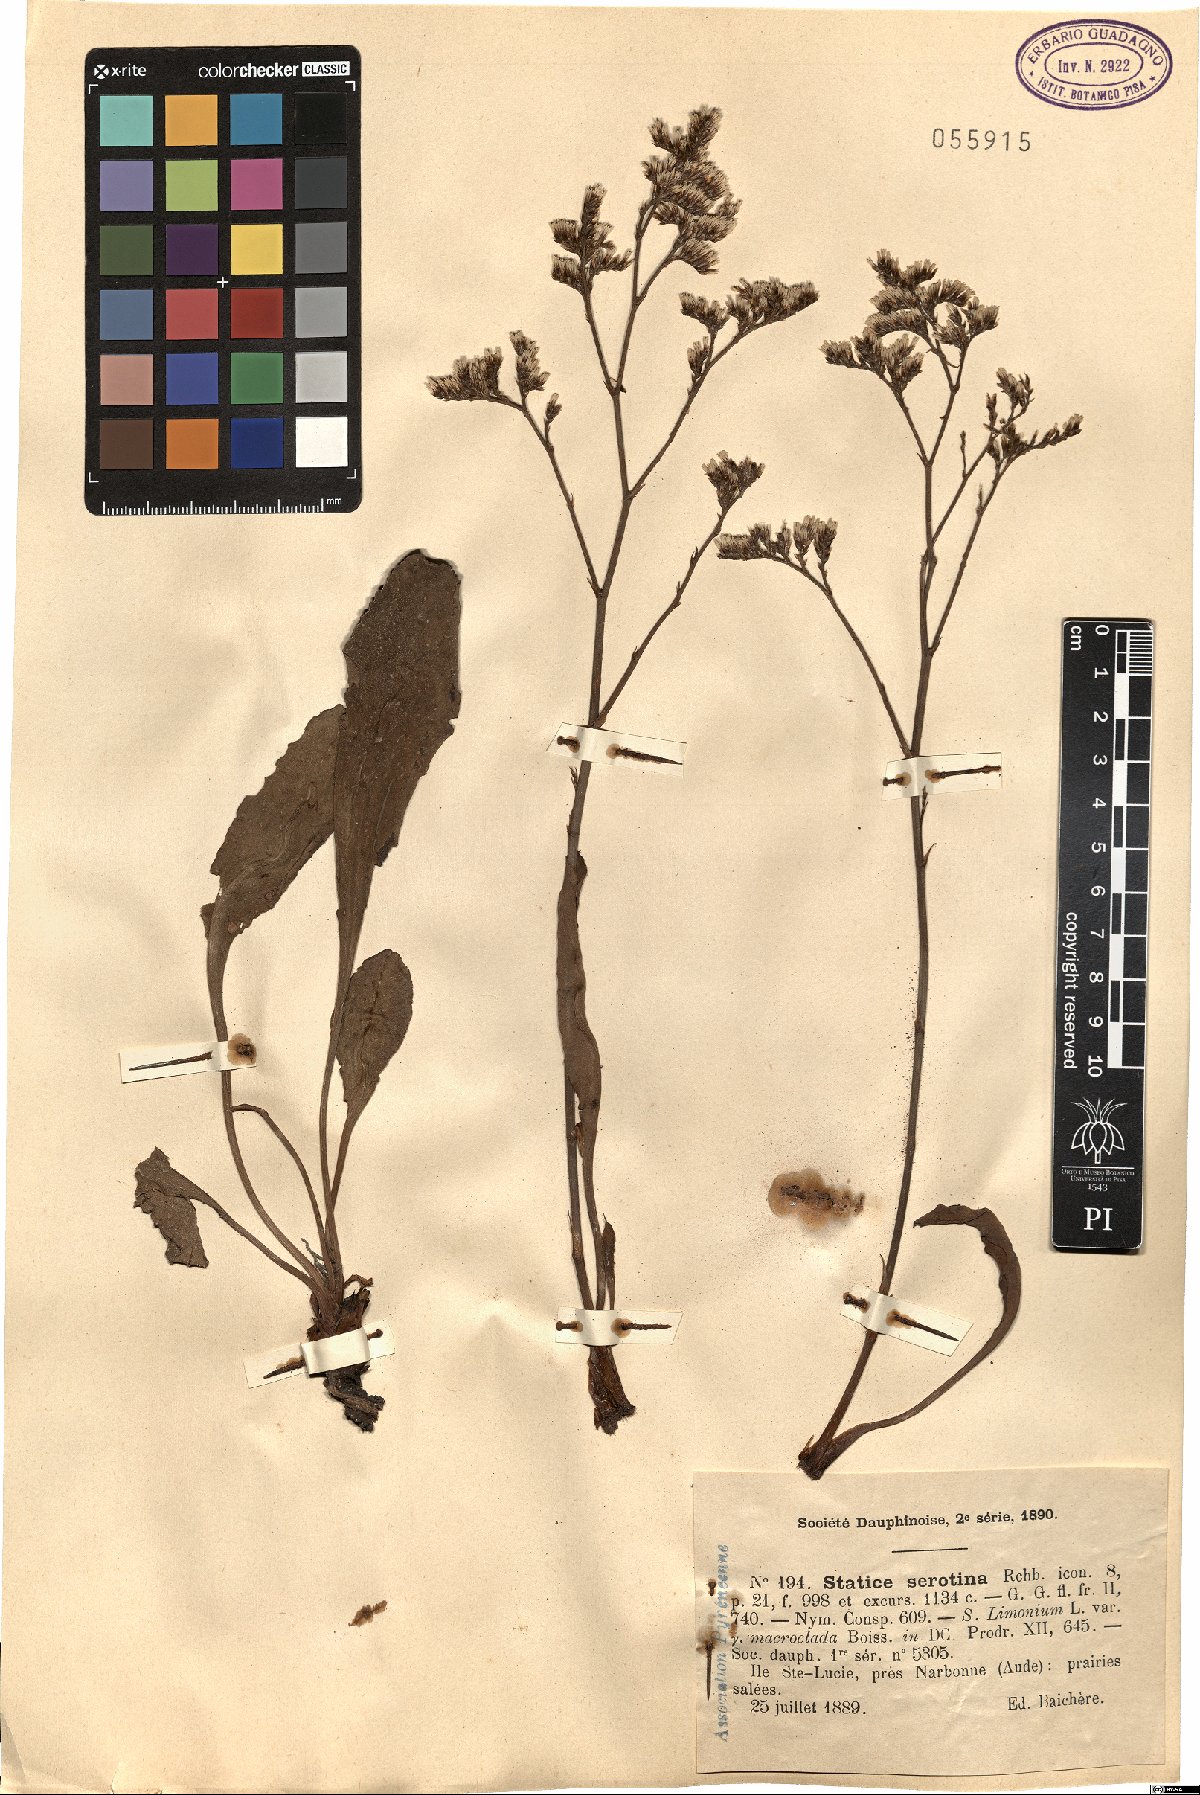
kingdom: Plantae
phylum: Tracheophyta
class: Magnoliopsida
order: Caryophyllales
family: Plumbaginaceae
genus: Limonium
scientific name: Limonium narbonense
